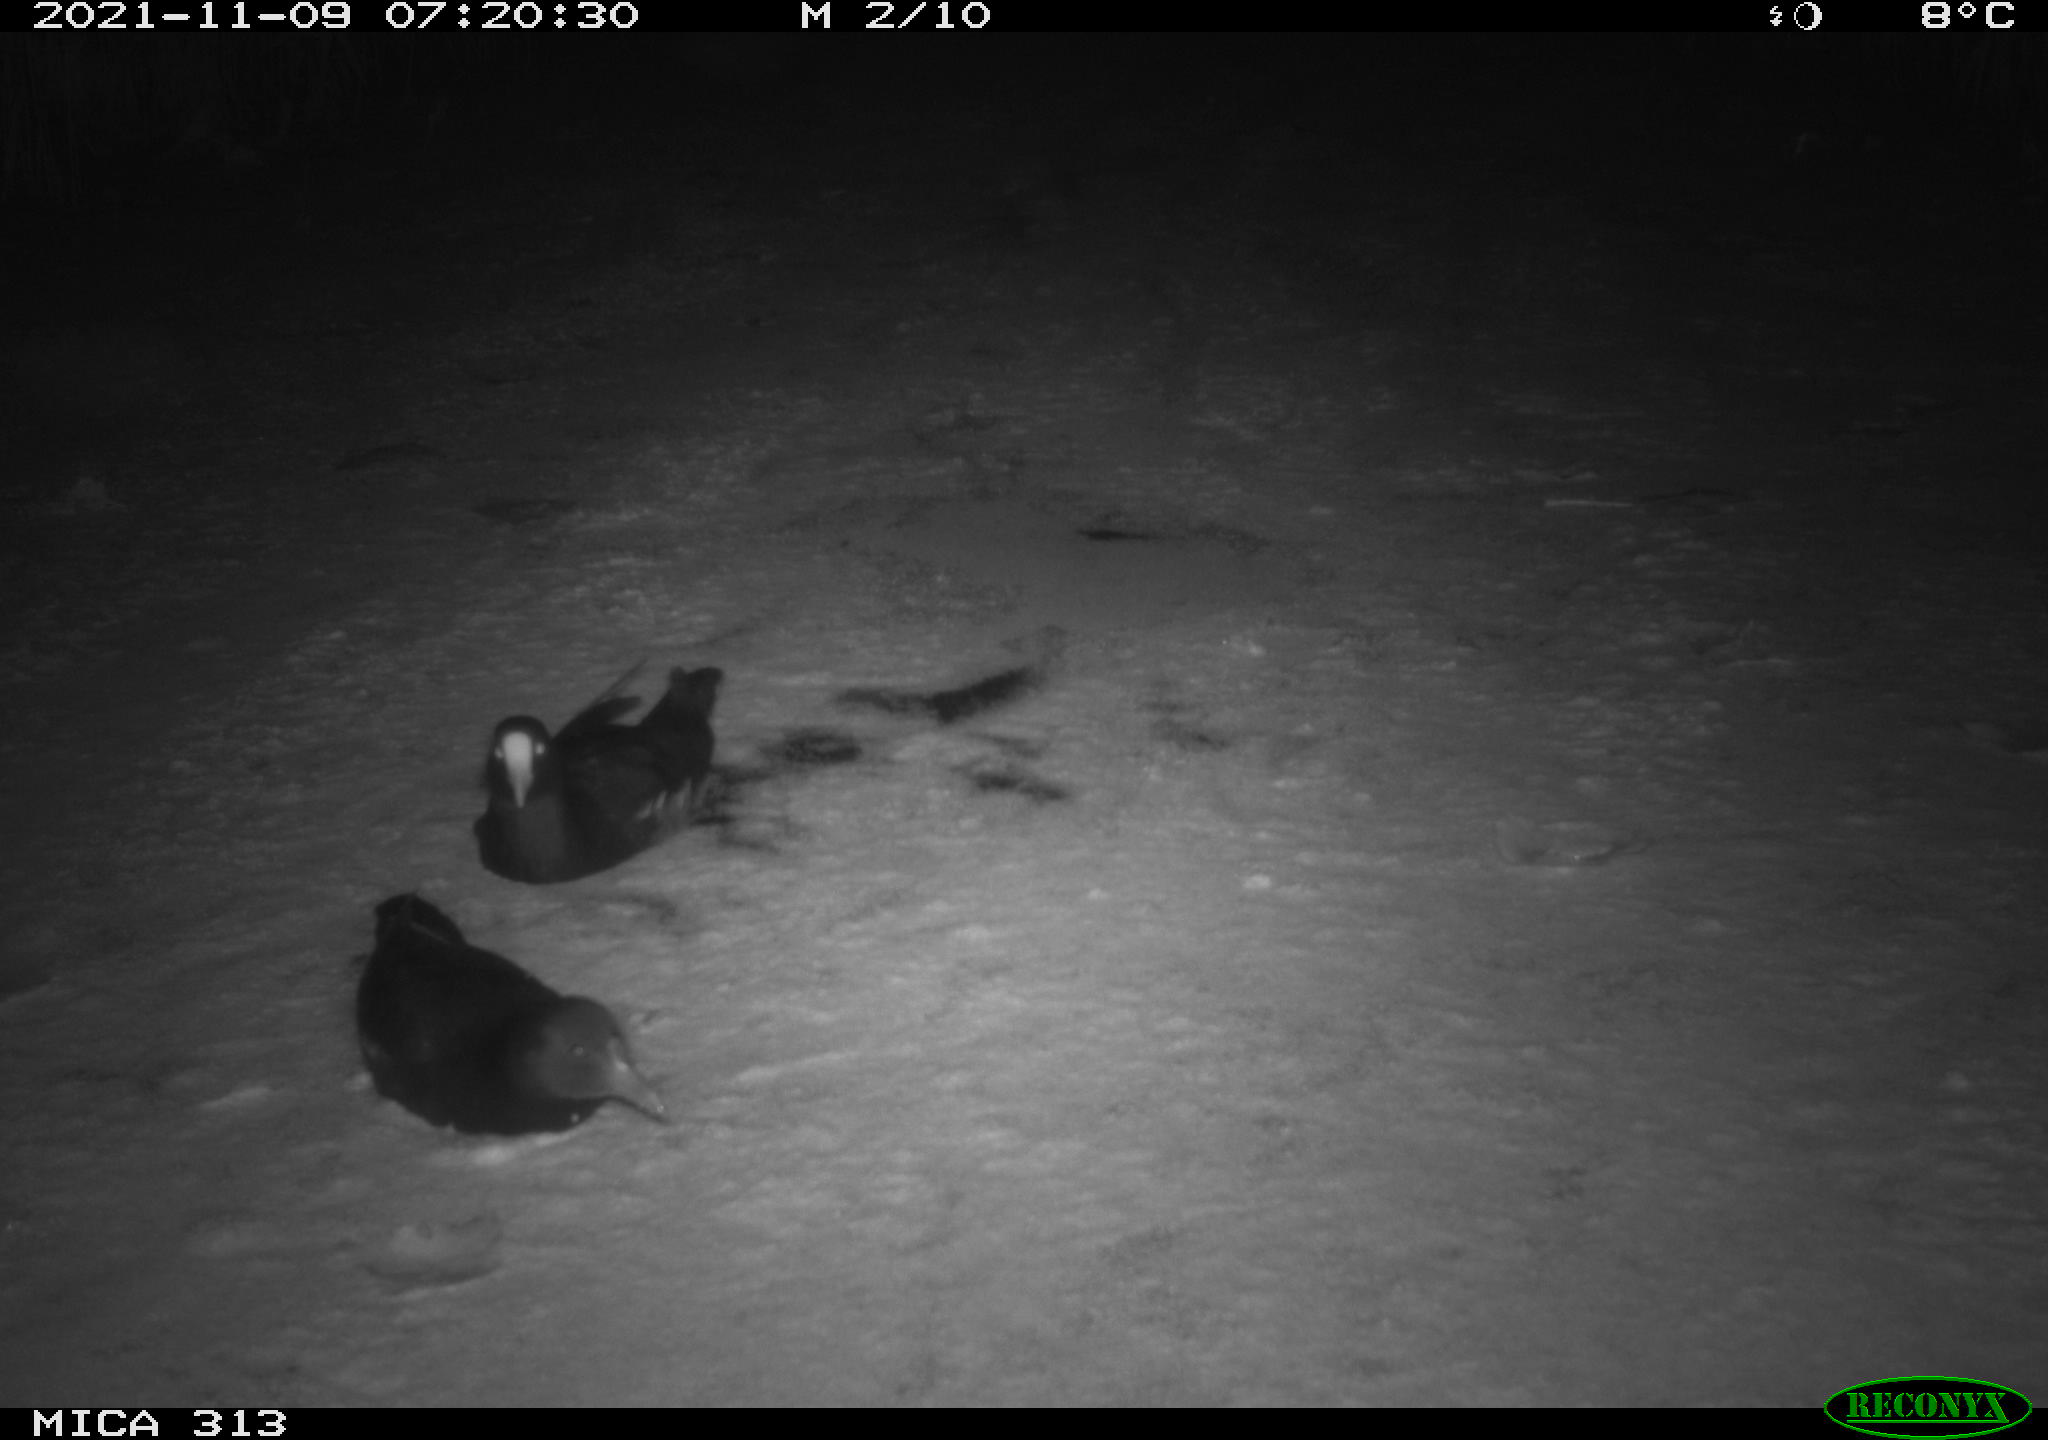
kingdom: Animalia
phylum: Chordata
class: Aves
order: Gruiformes
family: Rallidae
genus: Gallinula
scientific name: Gallinula chloropus
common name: Common moorhen
